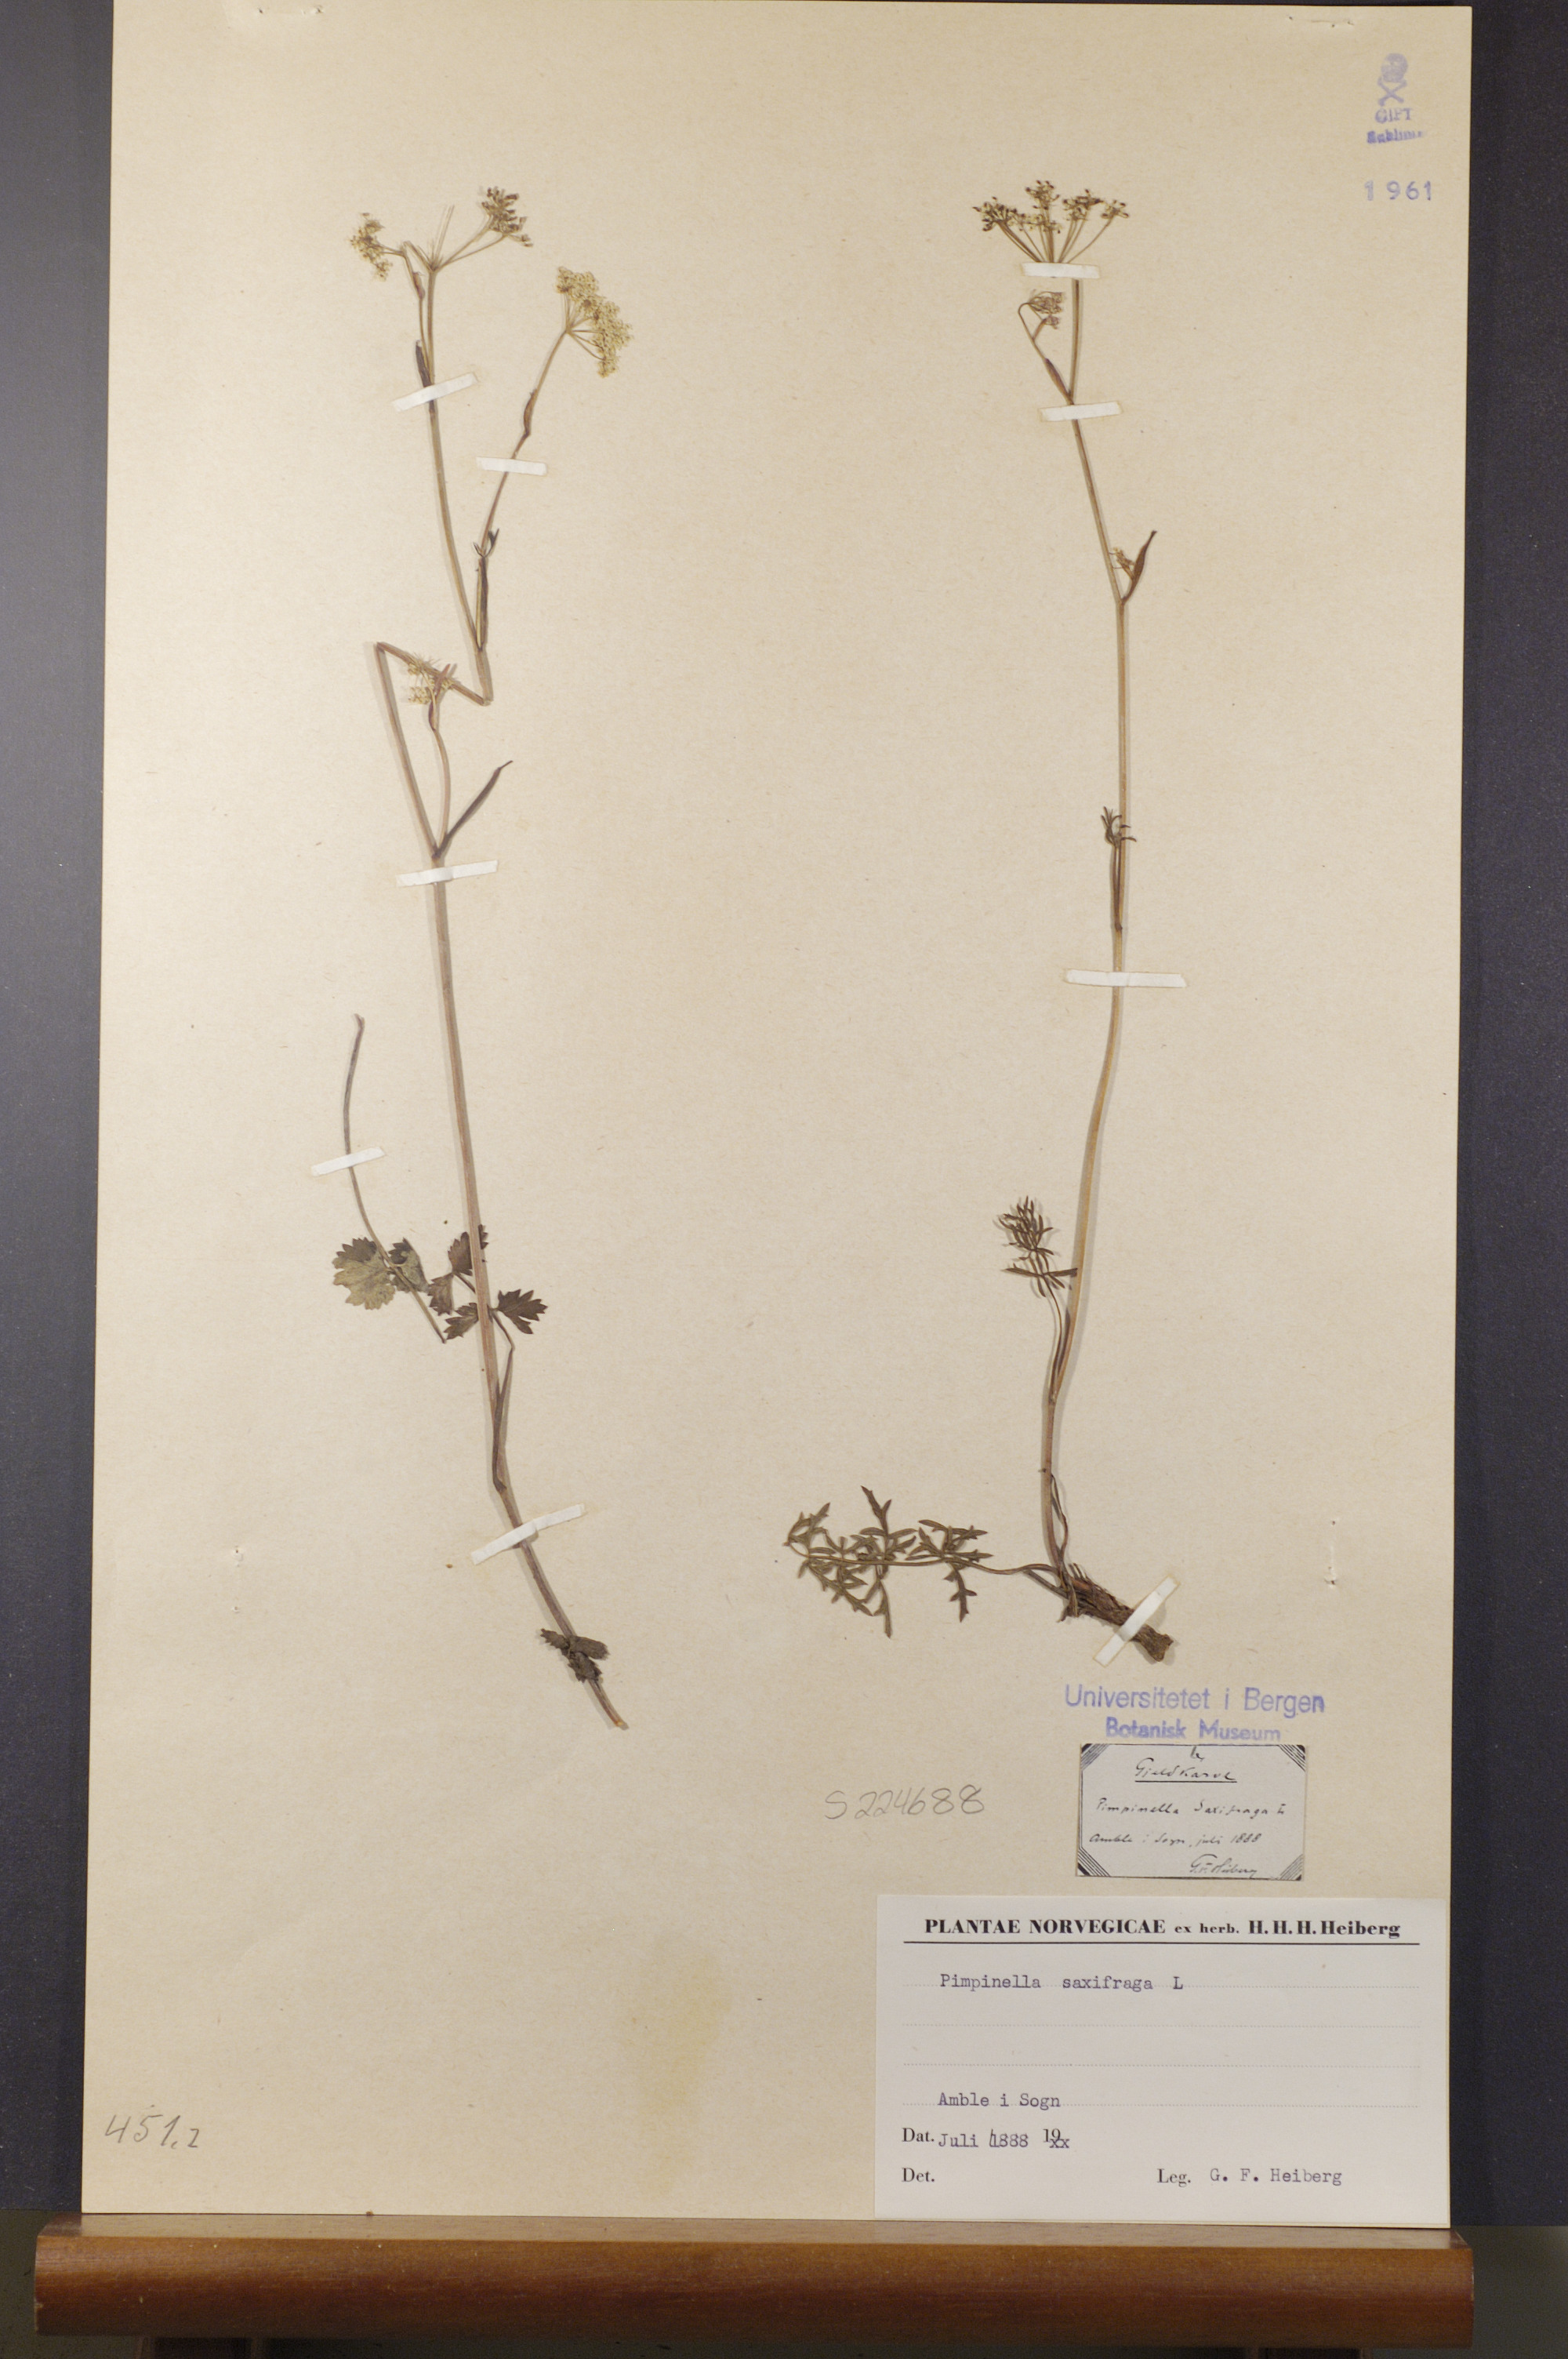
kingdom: Plantae
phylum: Tracheophyta
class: Magnoliopsida
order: Apiales
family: Apiaceae
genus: Pimpinella
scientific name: Pimpinella saxifraga
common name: Burnet-saxifrage
